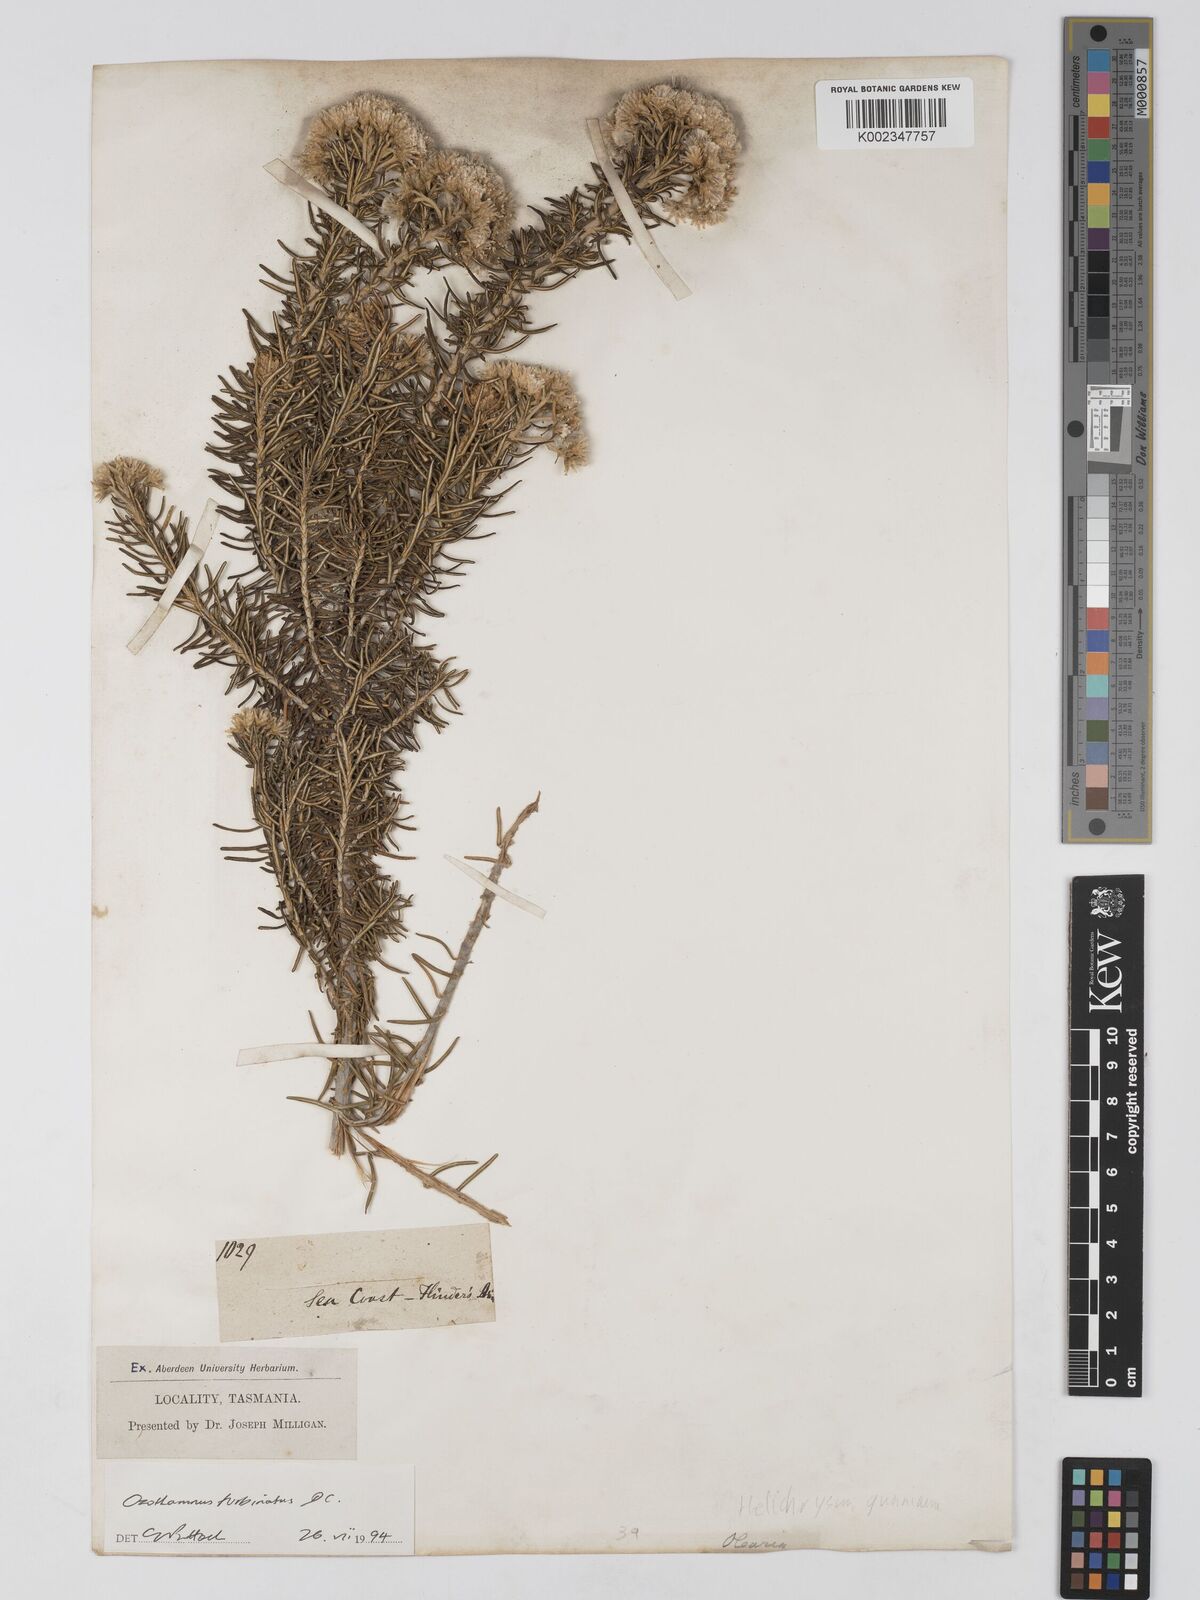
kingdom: Plantae
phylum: Tracheophyta
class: Magnoliopsida
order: Asterales
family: Asteraceae
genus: Ozothamnus
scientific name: Ozothamnus cinereus
